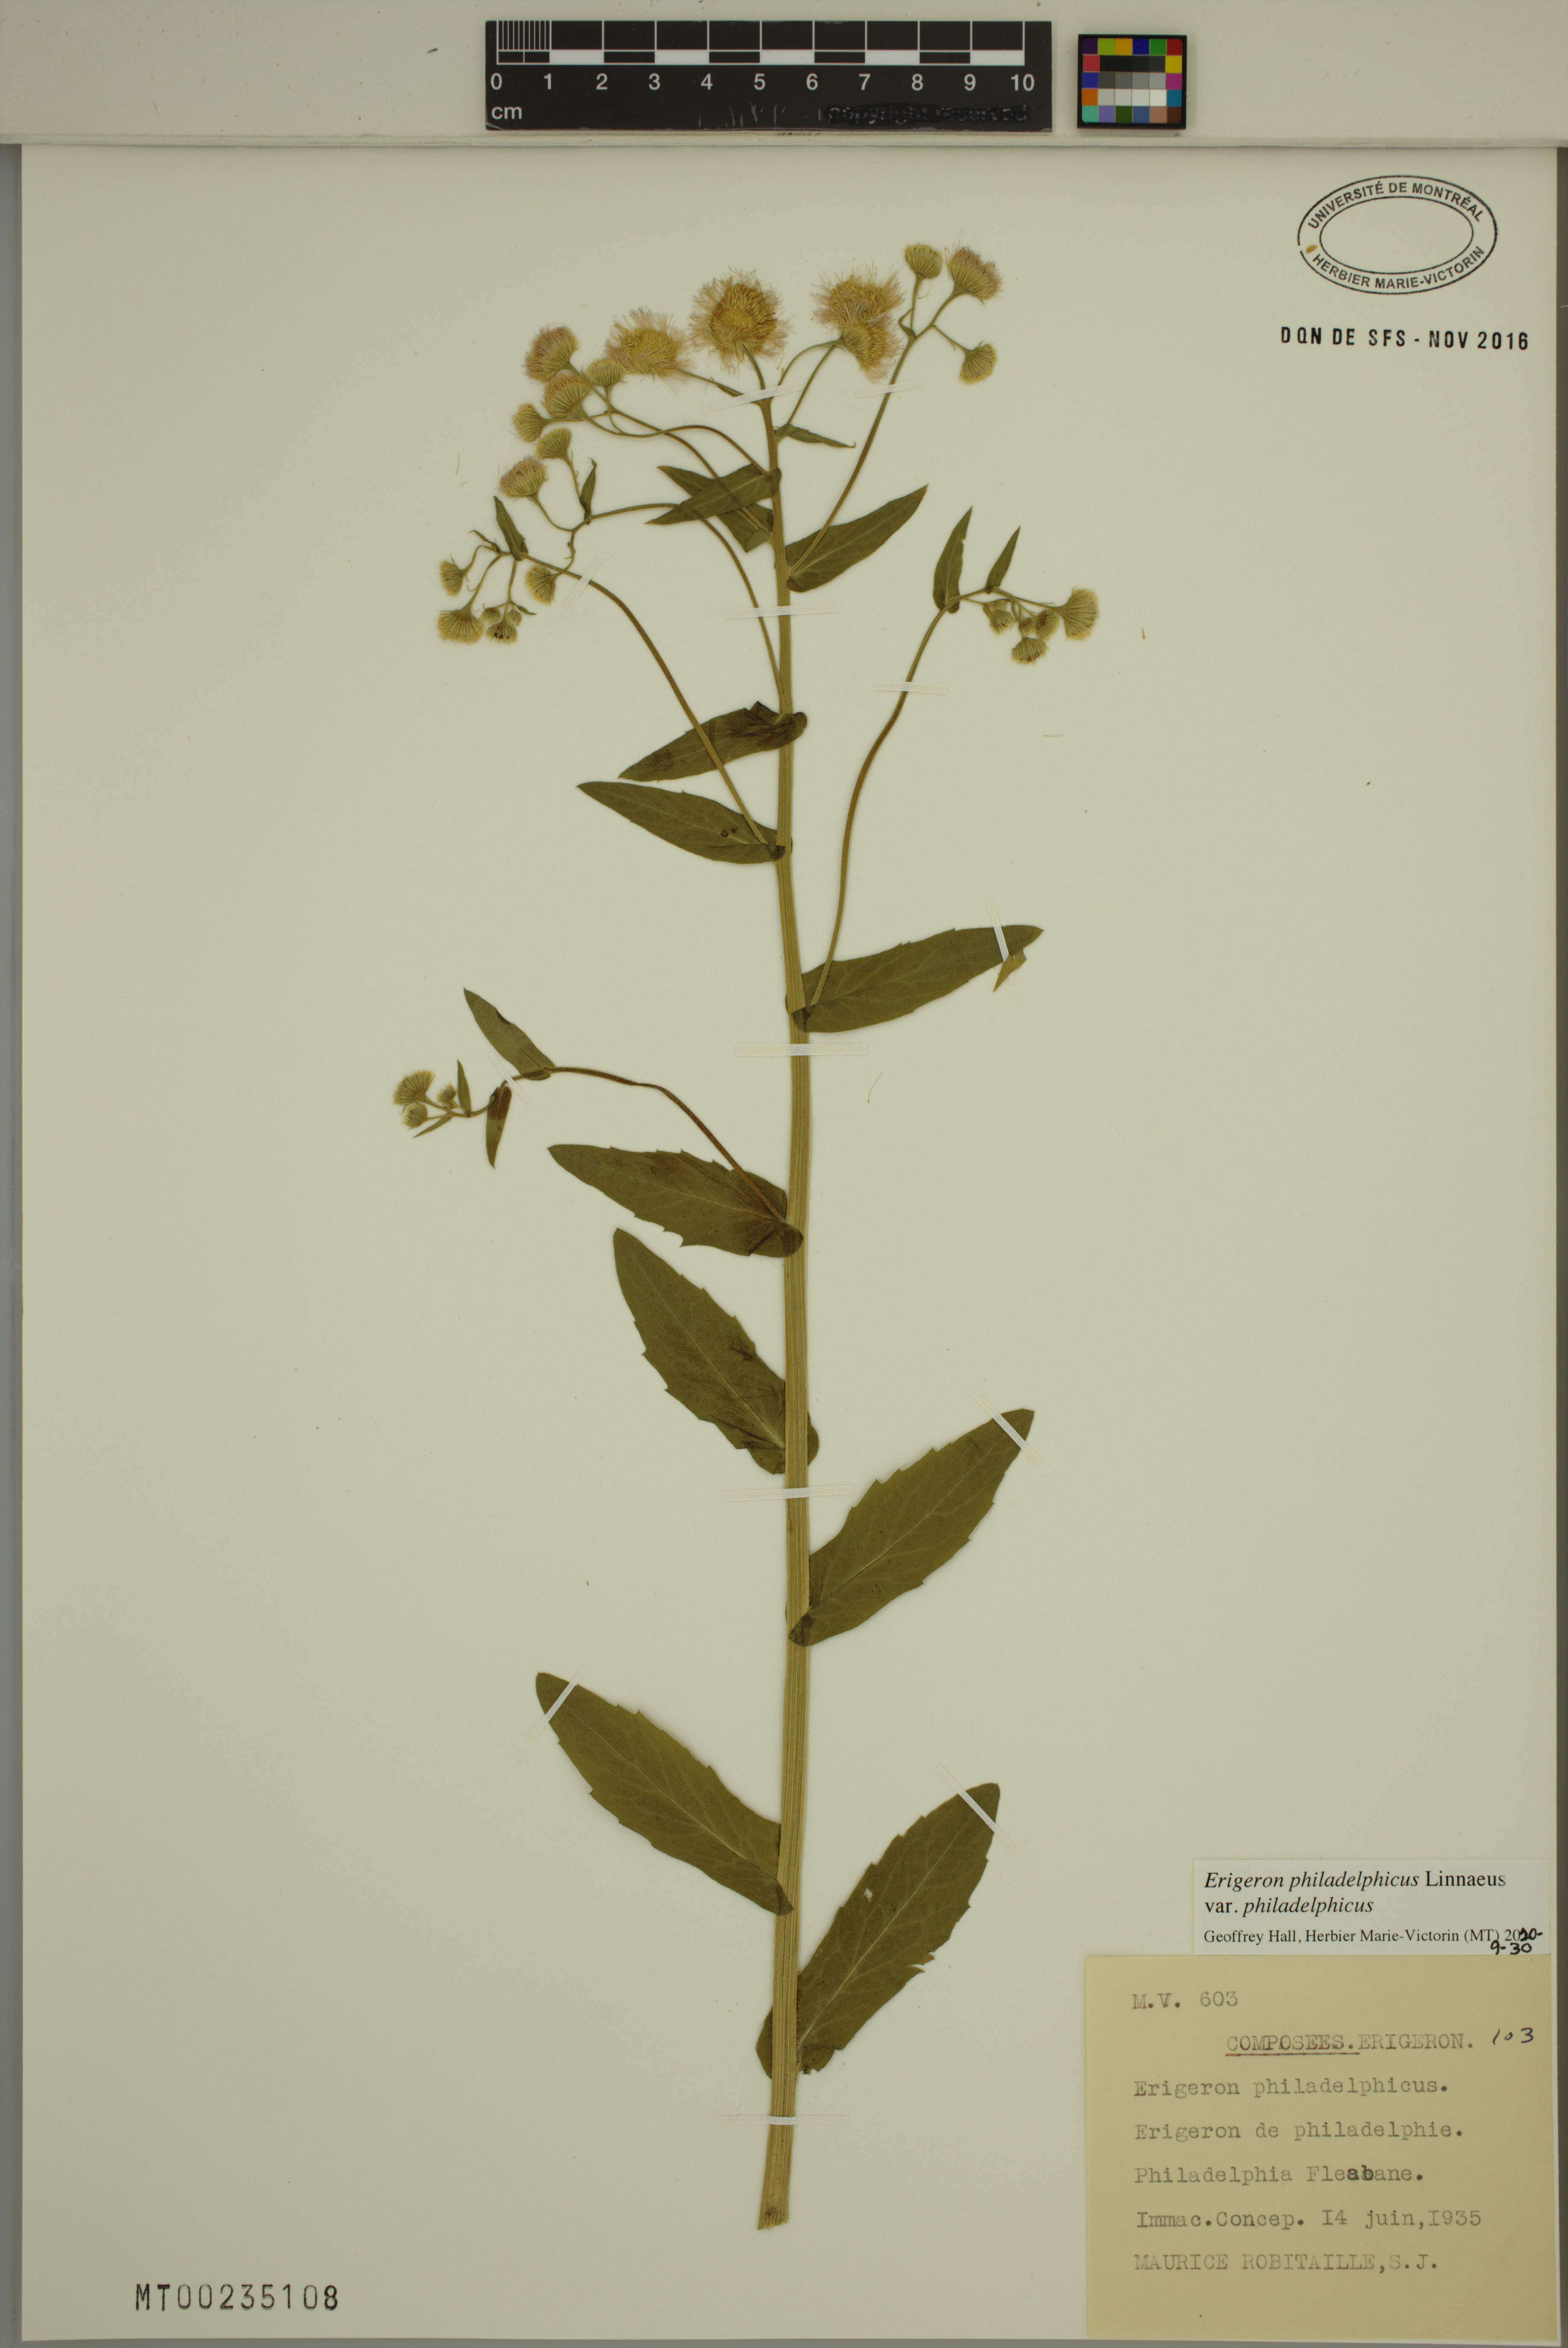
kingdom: Plantae
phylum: Tracheophyta
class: Magnoliopsida
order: Asterales
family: Asteraceae
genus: Erigeron
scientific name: Erigeron philadelphicus
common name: Robin's-plantain
